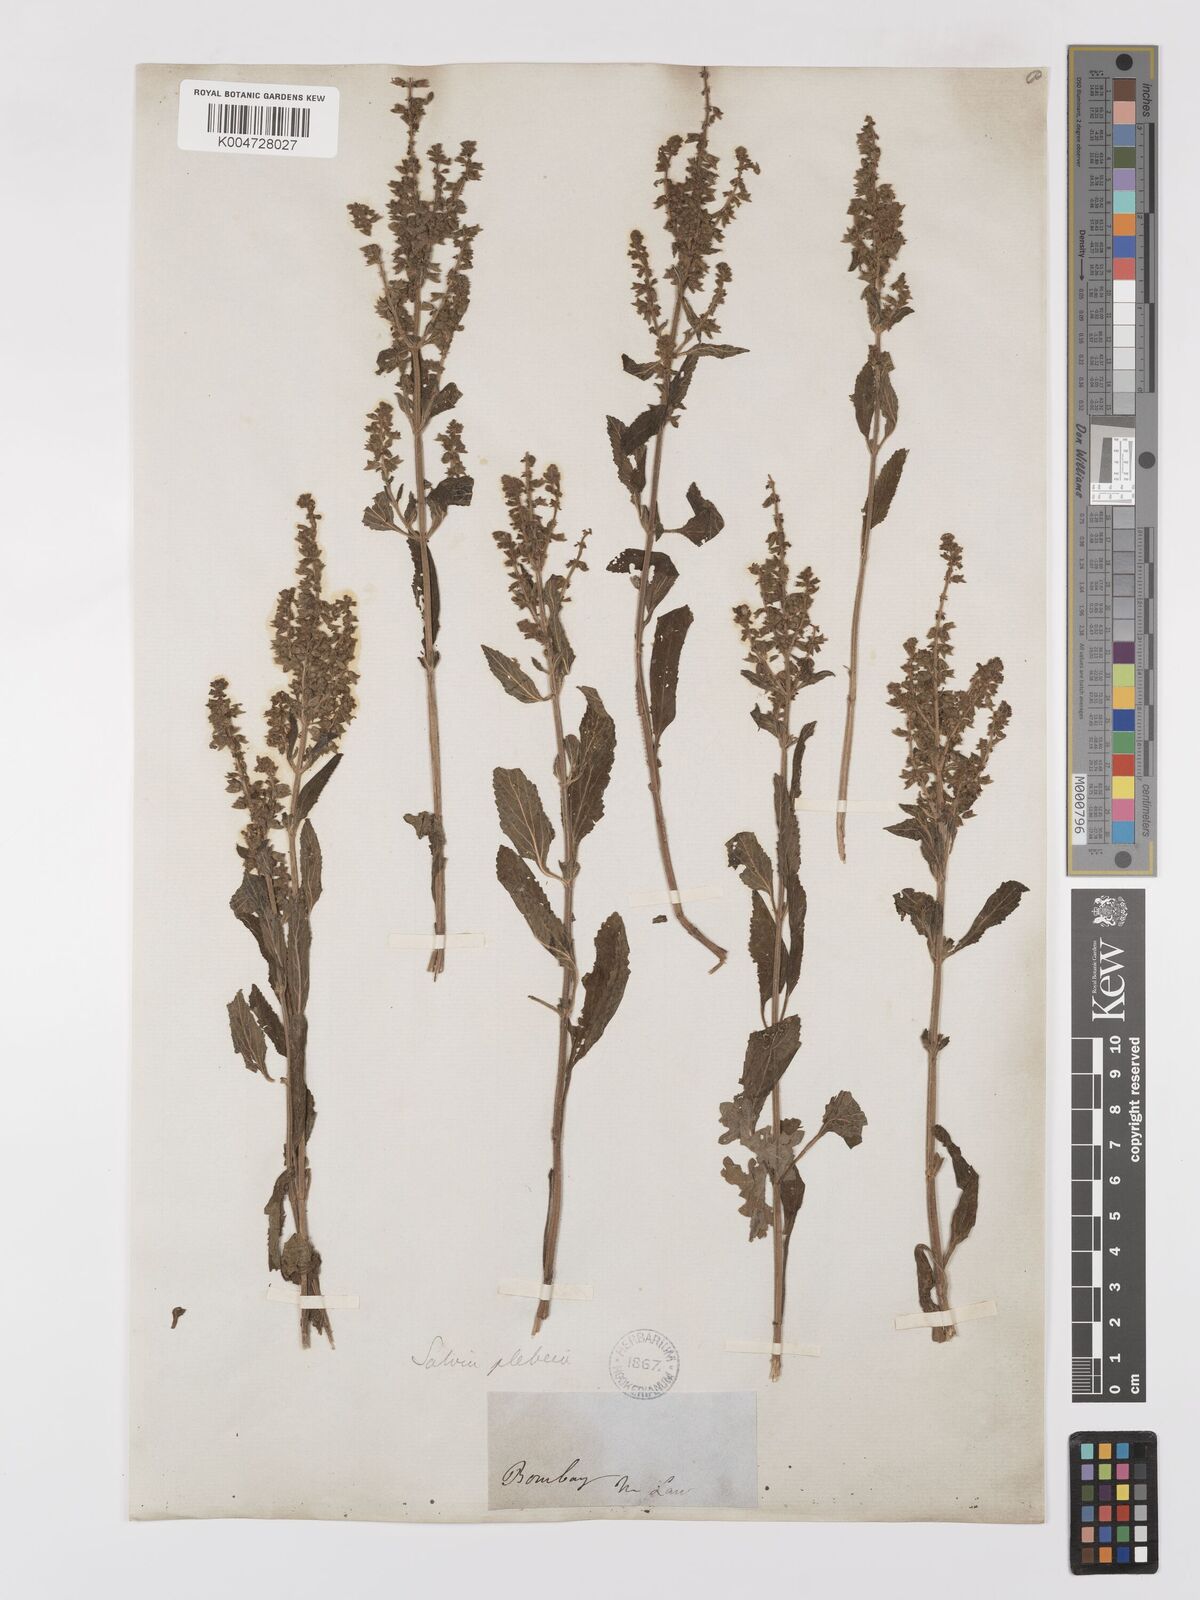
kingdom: Plantae
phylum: Tracheophyta
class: Magnoliopsida
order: Lamiales
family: Lamiaceae
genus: Salvia
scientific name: Salvia plebeia
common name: Australian sage
